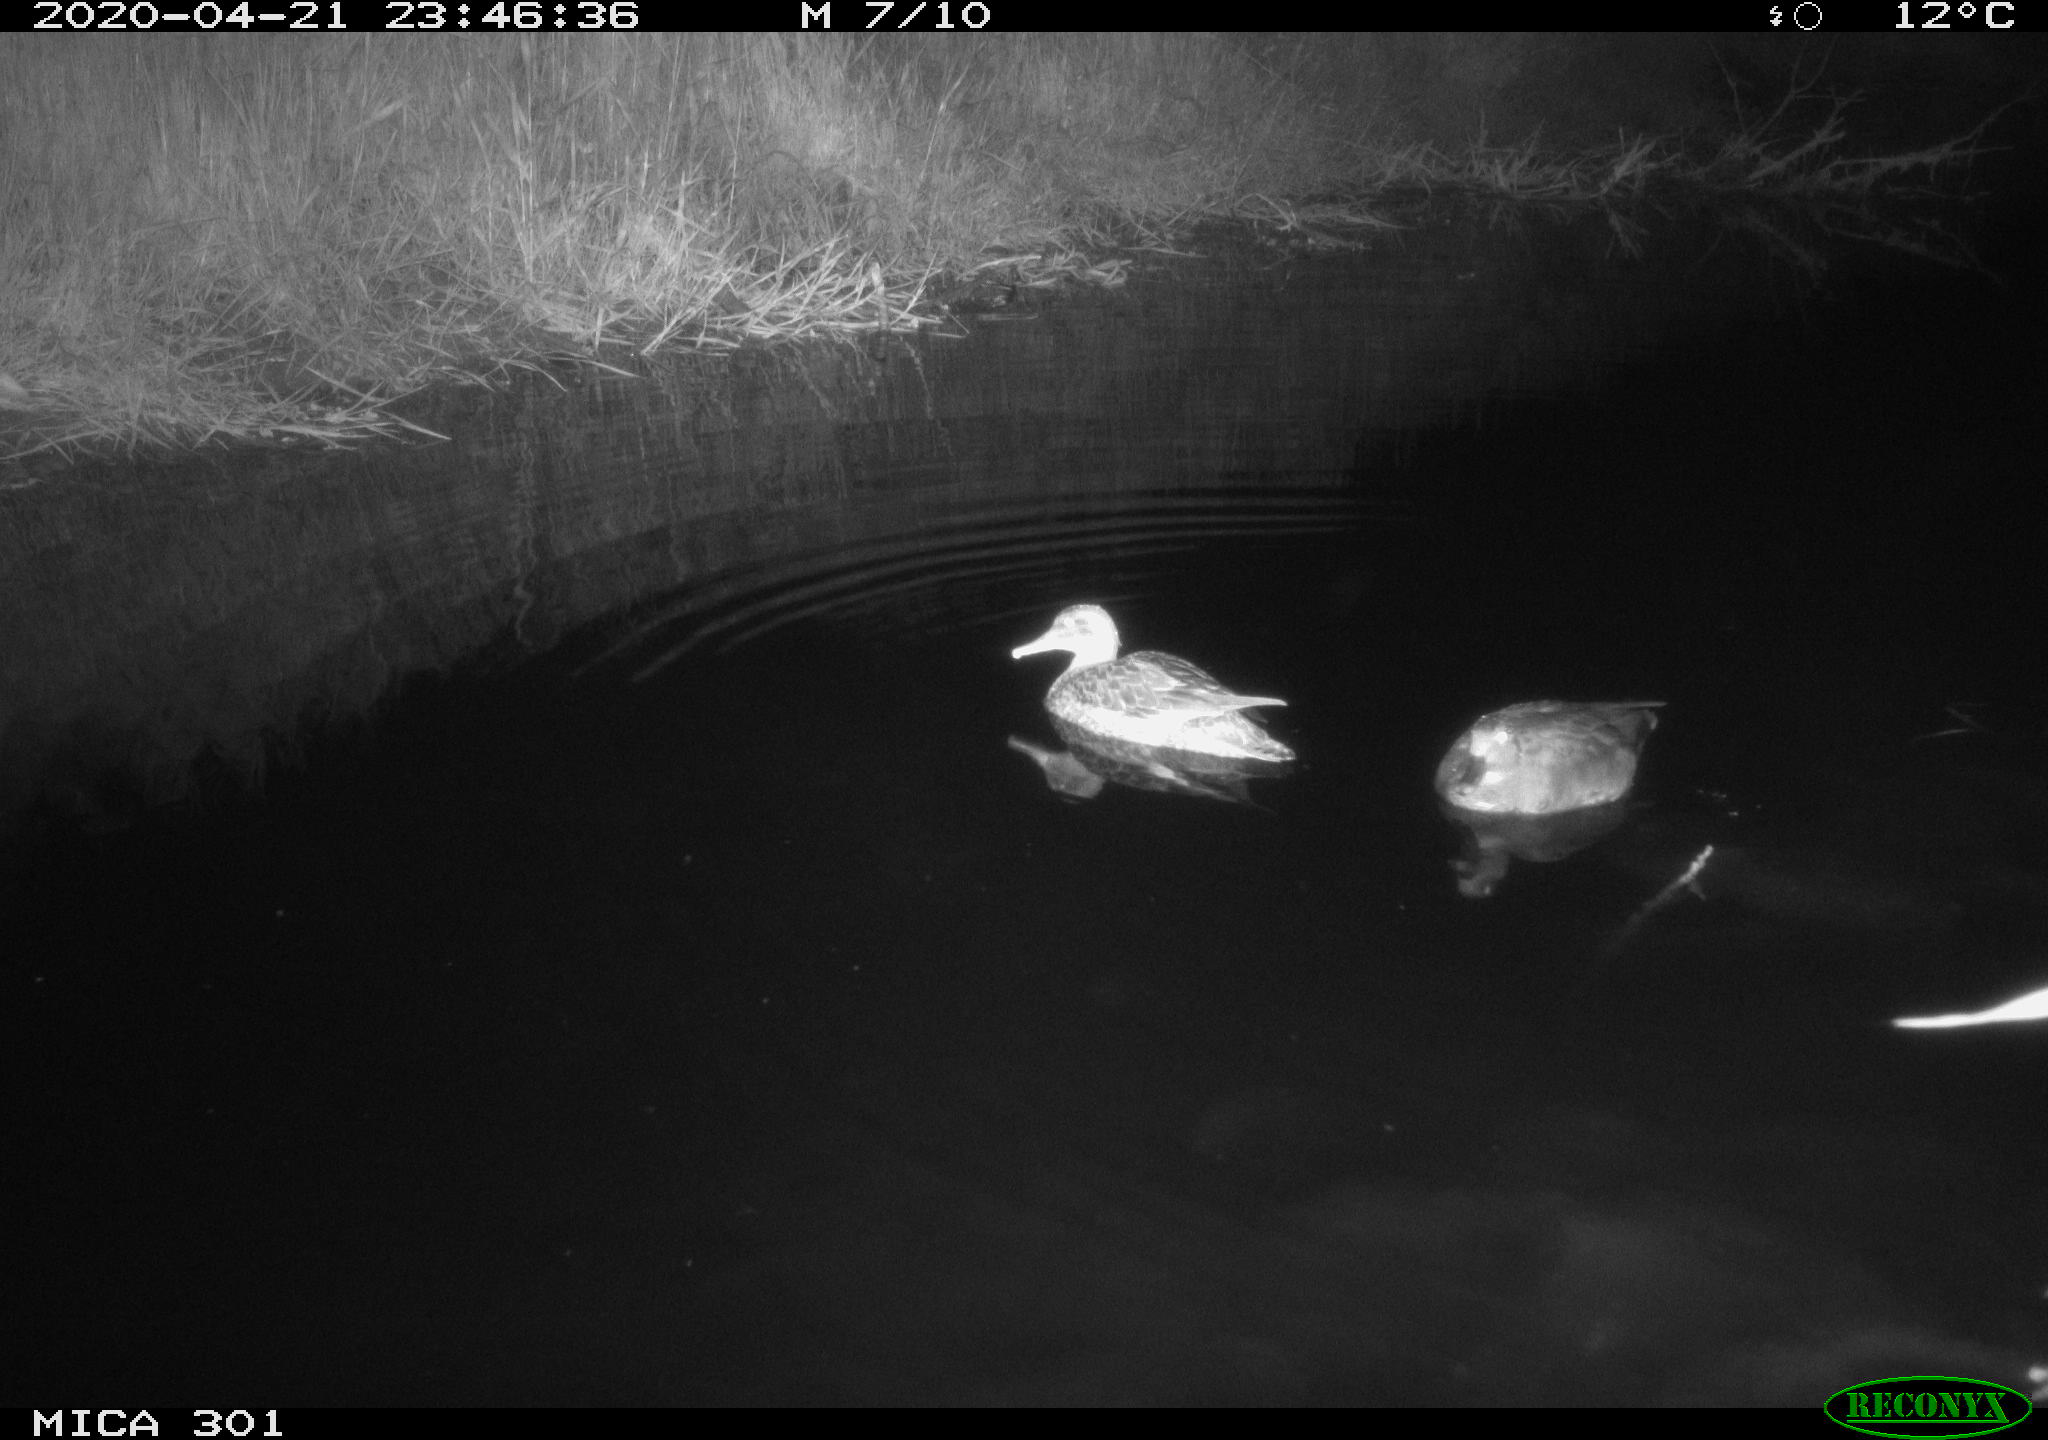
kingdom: Animalia
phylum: Chordata
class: Aves
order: Anseriformes
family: Anatidae
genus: Mareca
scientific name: Mareca strepera
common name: Gadwall
